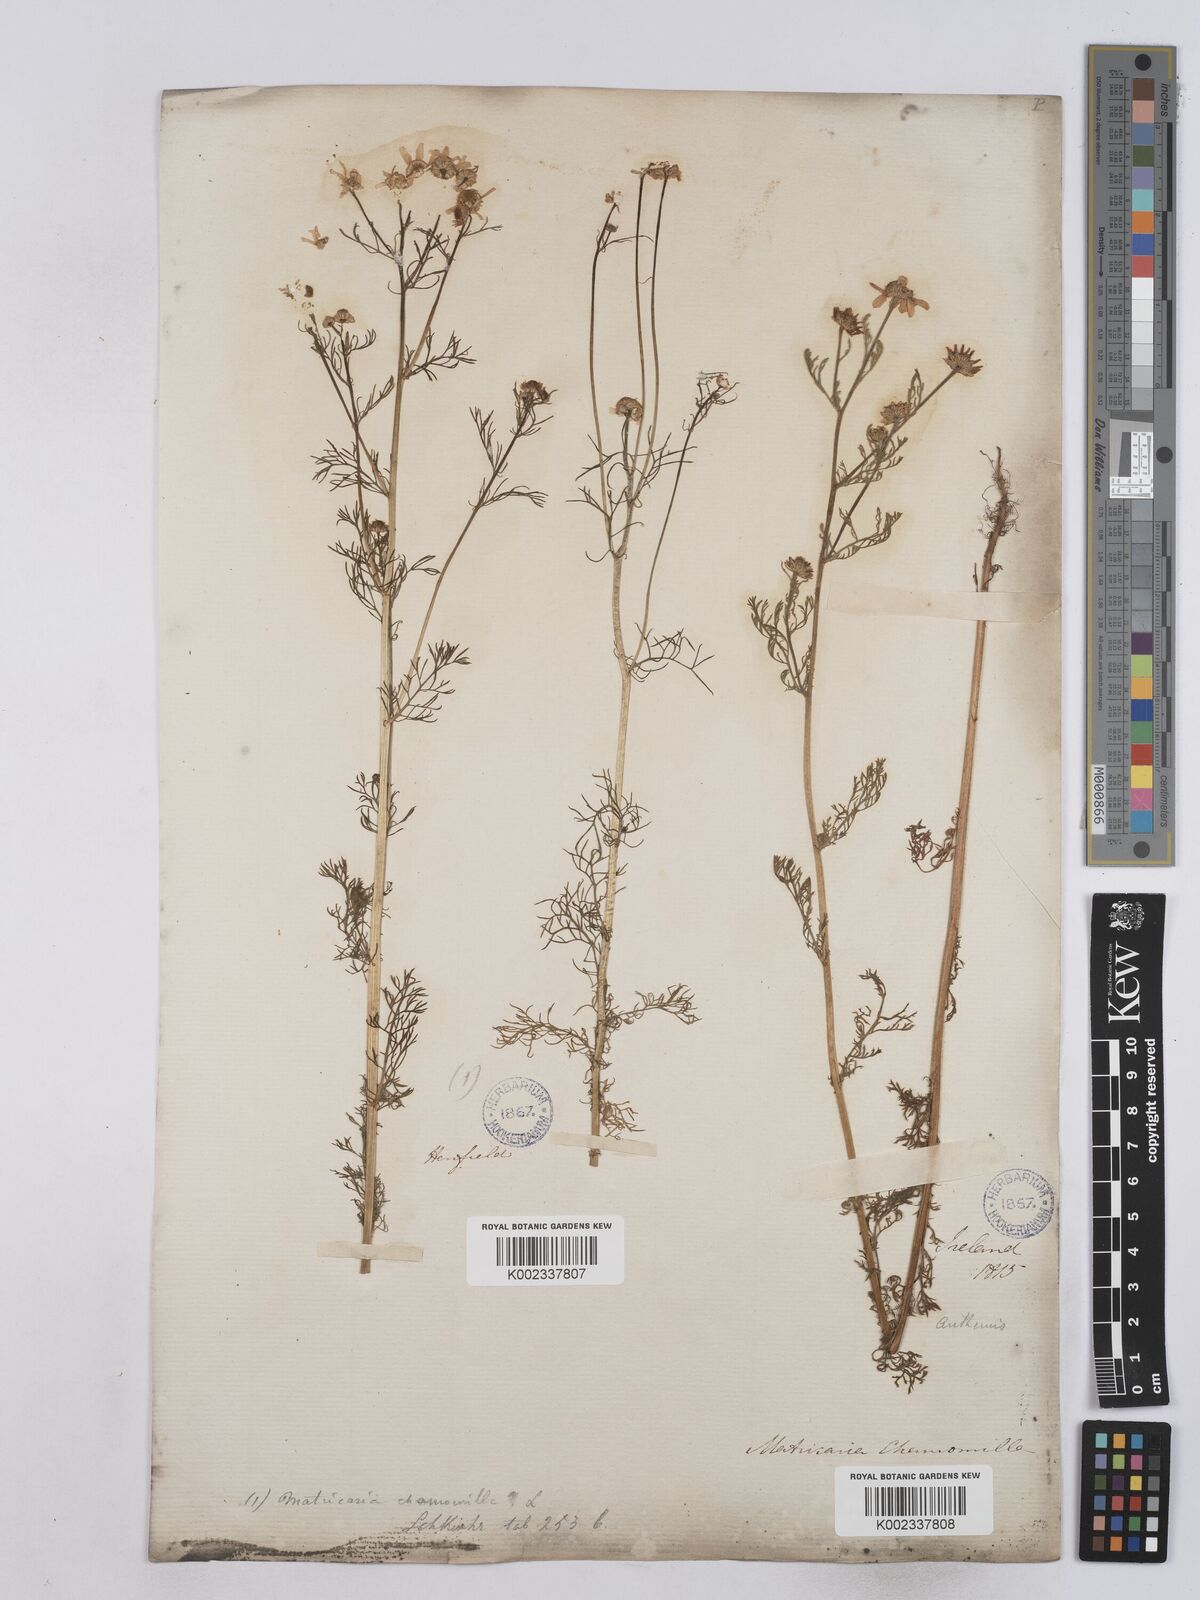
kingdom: Plantae
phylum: Tracheophyta
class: Magnoliopsida
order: Asterales
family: Asteraceae
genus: Matricaria
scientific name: Matricaria chamomilla
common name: Scented mayweed
